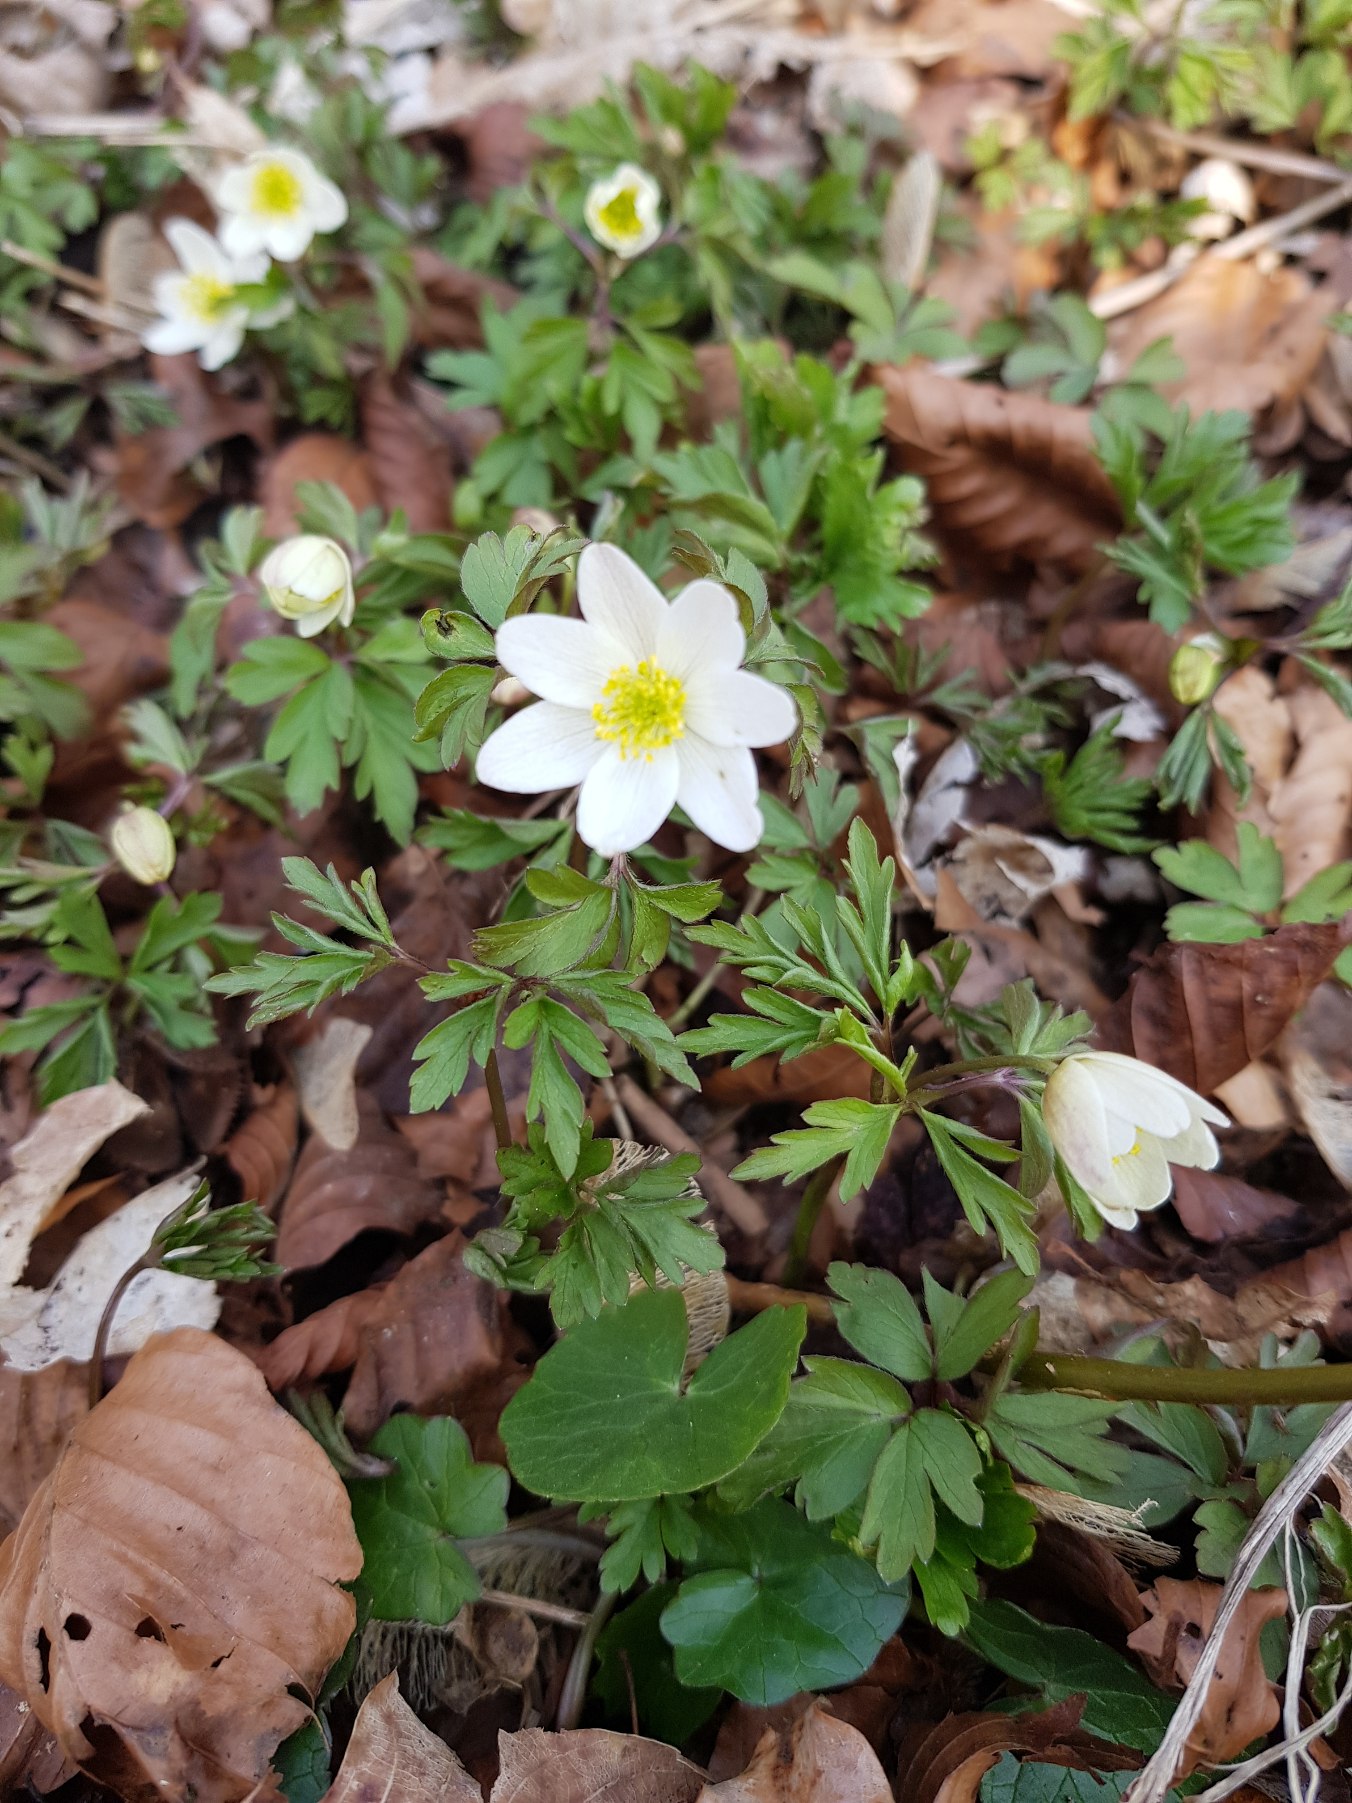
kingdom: Plantae
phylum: Tracheophyta
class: Magnoliopsida
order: Ranunculales
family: Ranunculaceae
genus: Anemone
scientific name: Anemone nemorosa
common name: Hvid anemone
